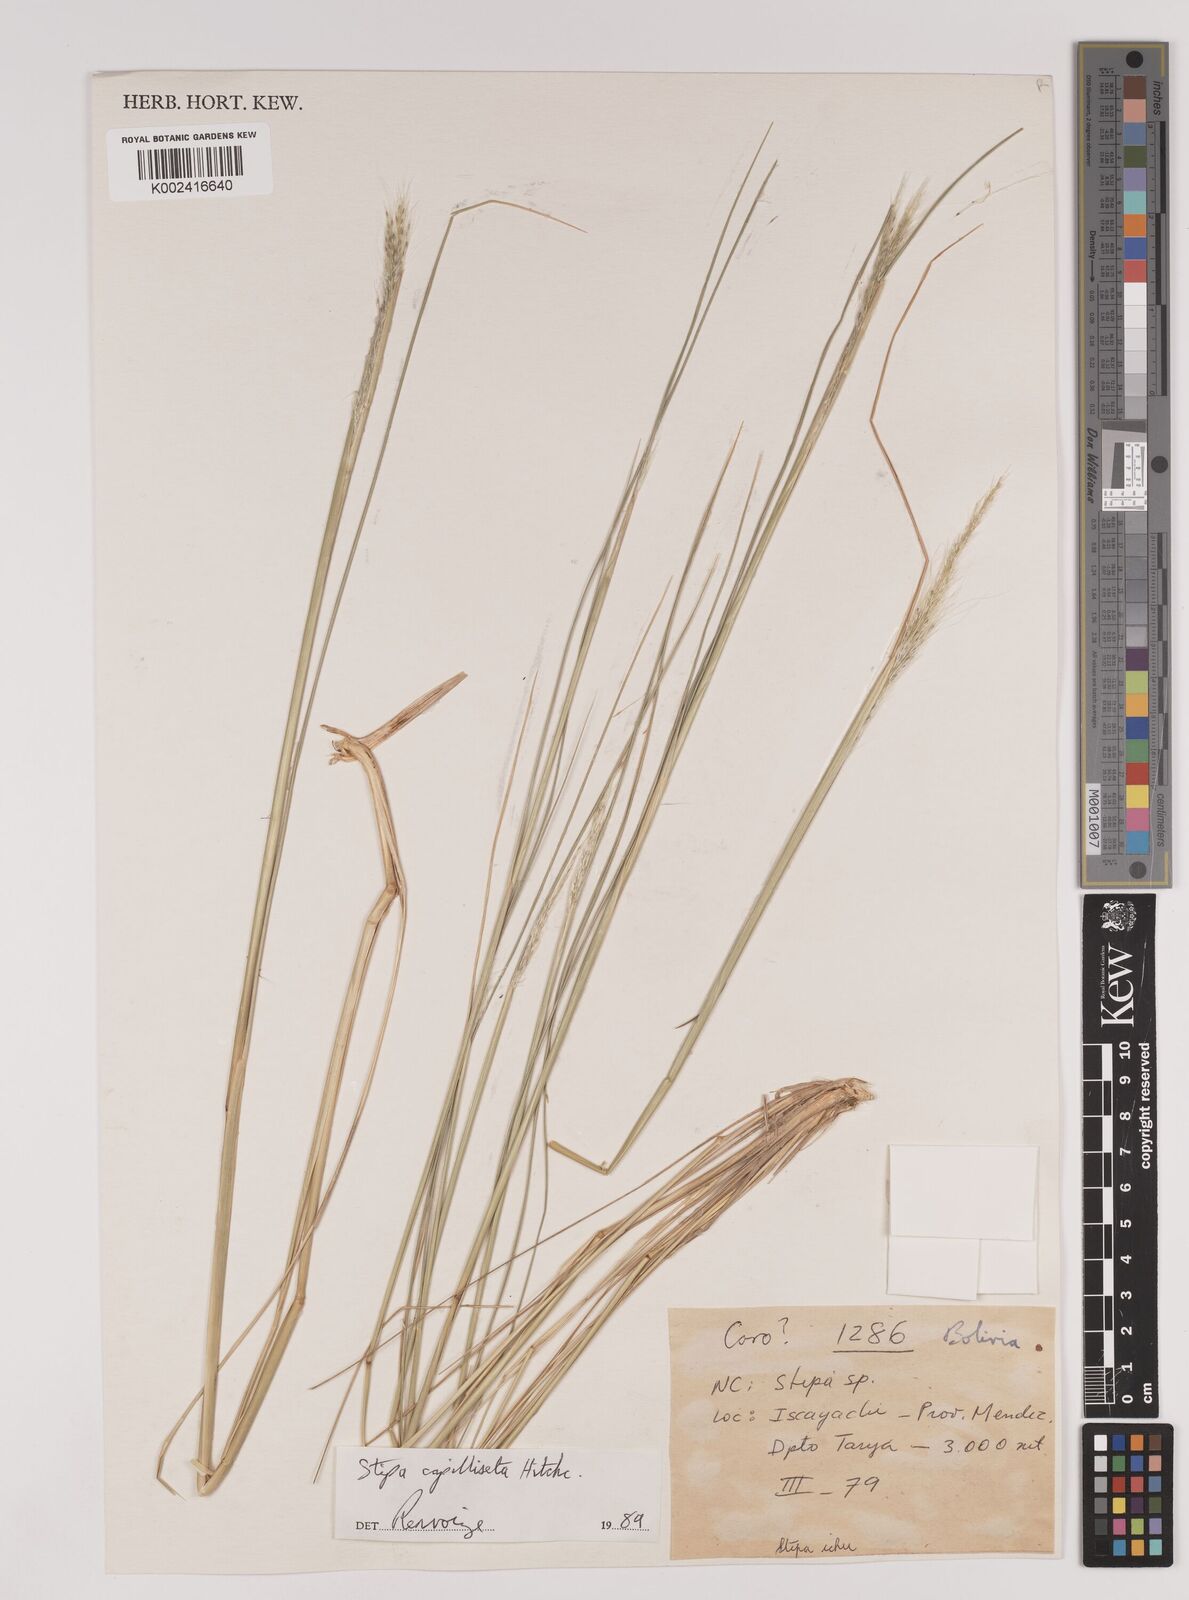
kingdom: Plantae
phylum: Tracheophyta
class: Liliopsida
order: Poales
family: Poaceae
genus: Jarava
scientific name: Jarava leptostachya
